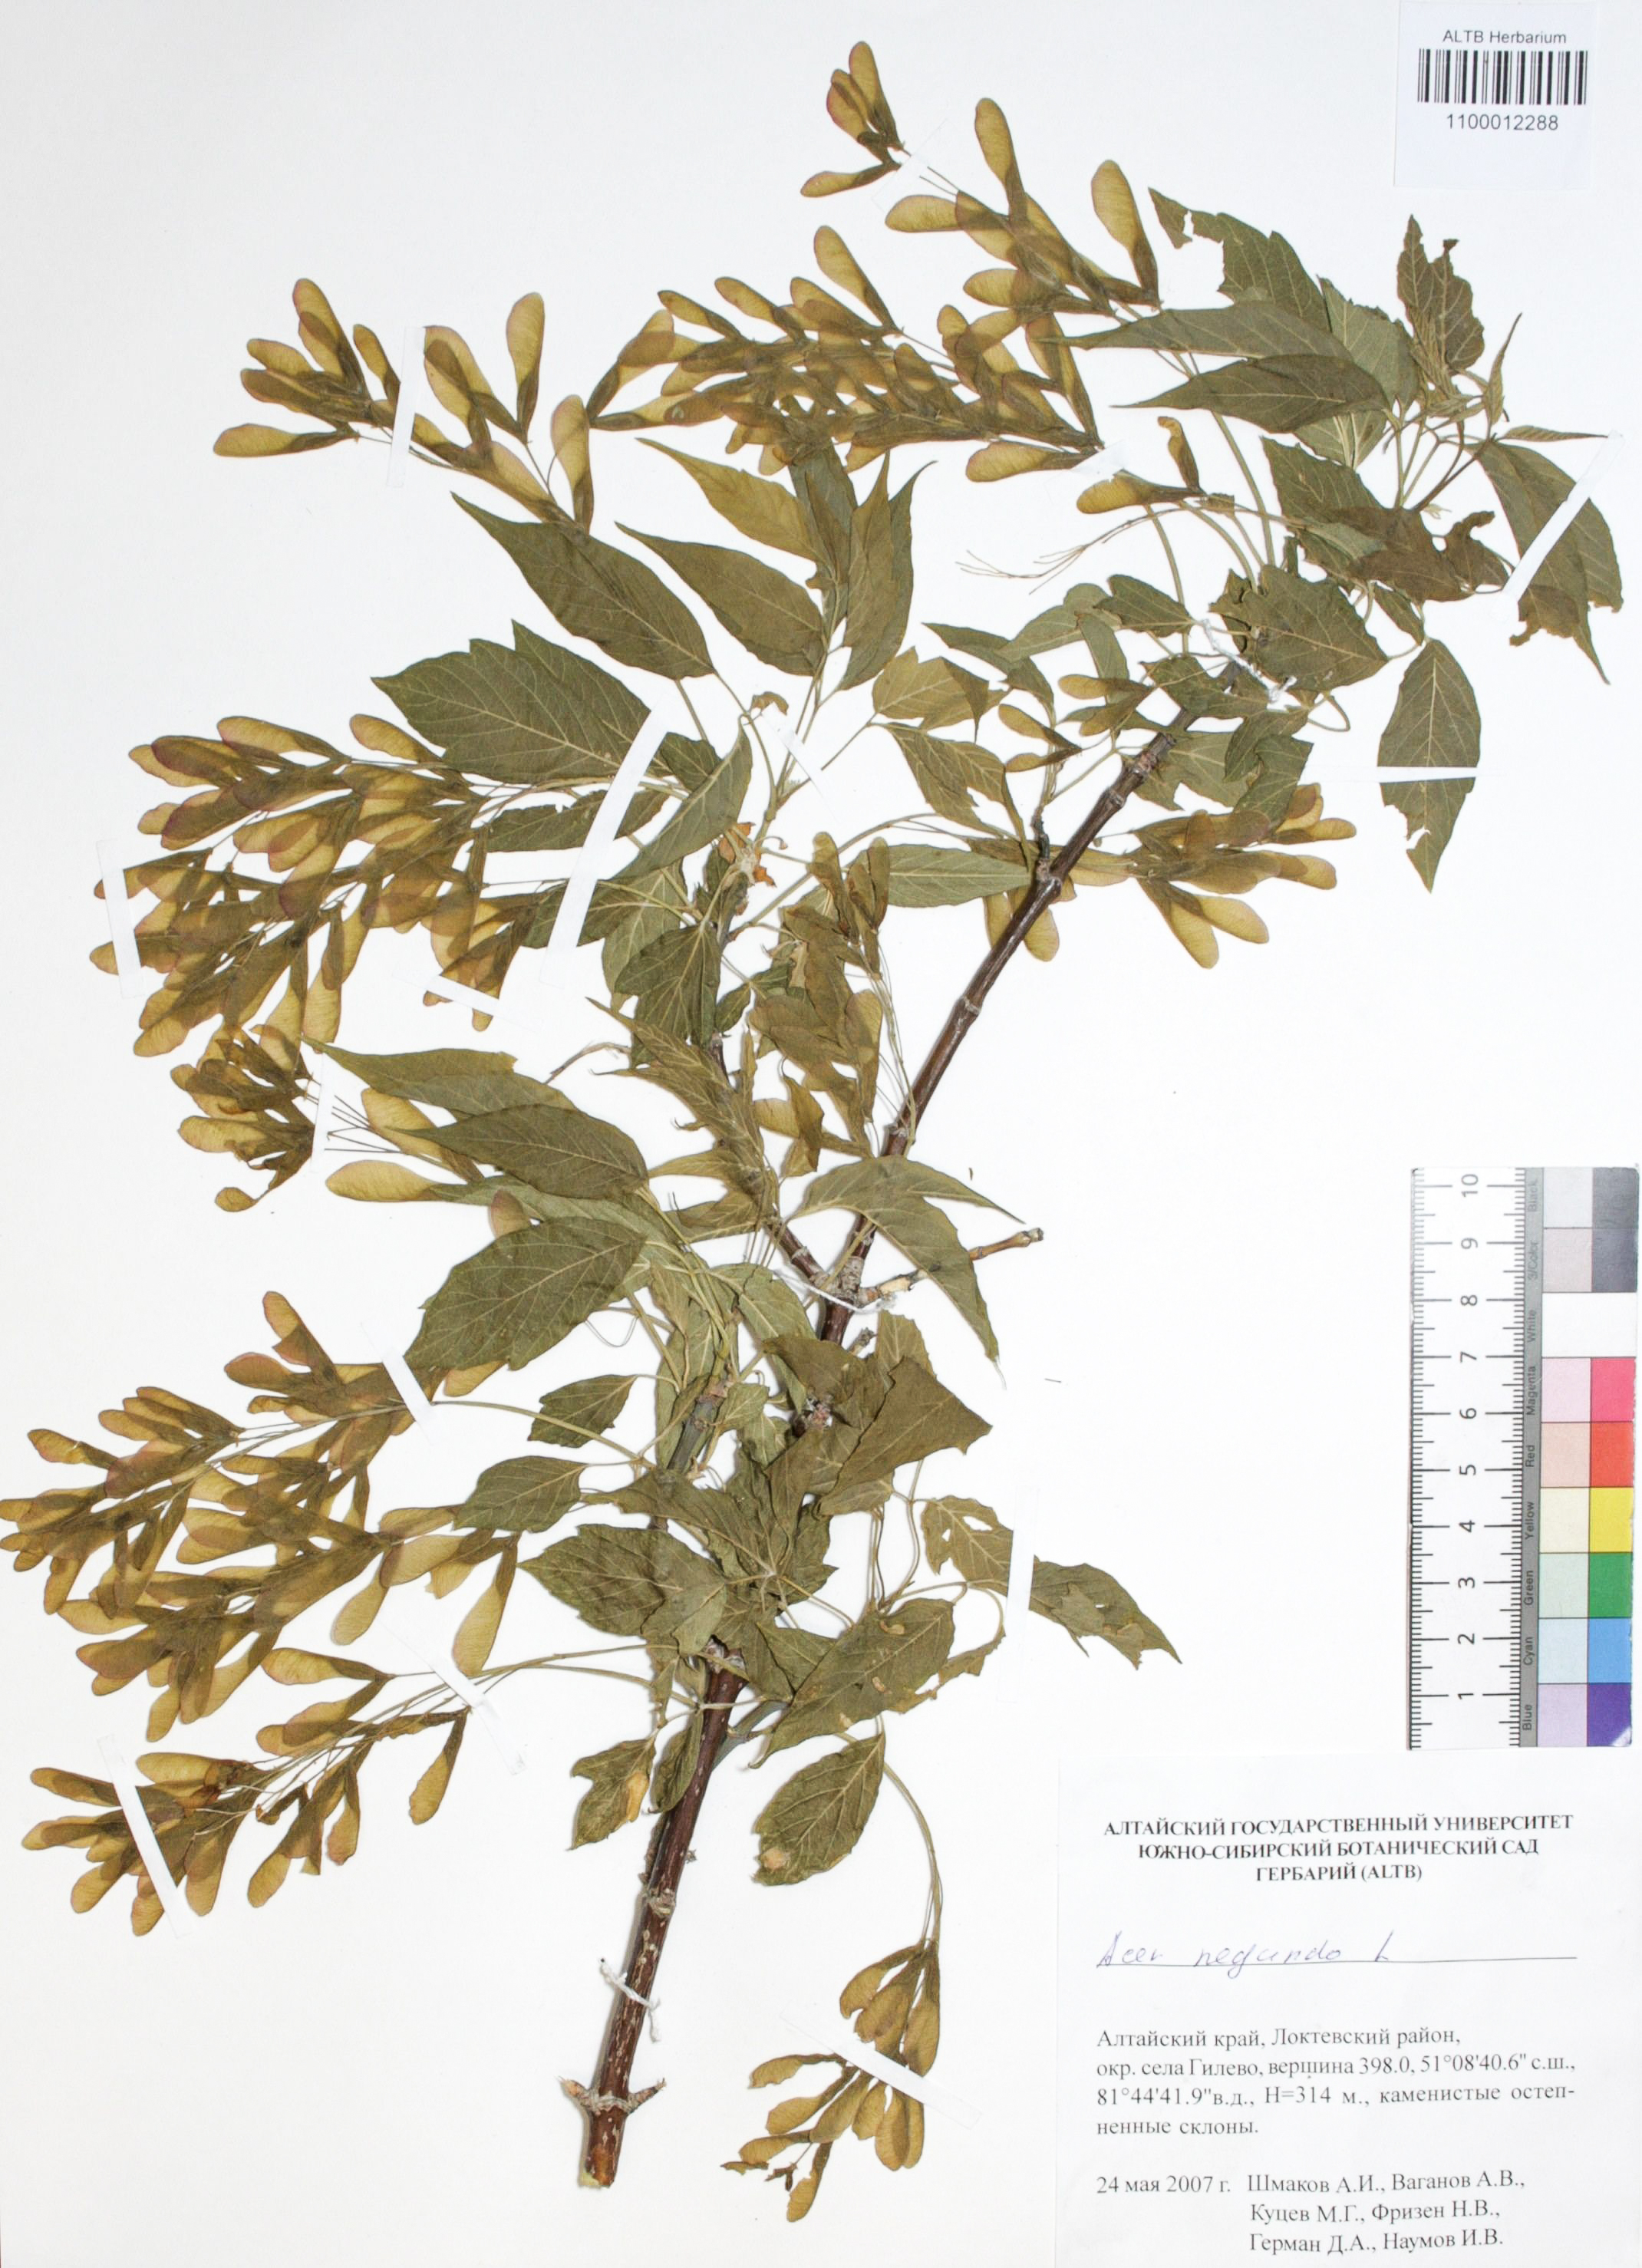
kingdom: Plantae
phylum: Tracheophyta
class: Magnoliopsida
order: Sapindales
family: Sapindaceae
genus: Acer
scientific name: Acer negundo
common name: Ashleaf maple
